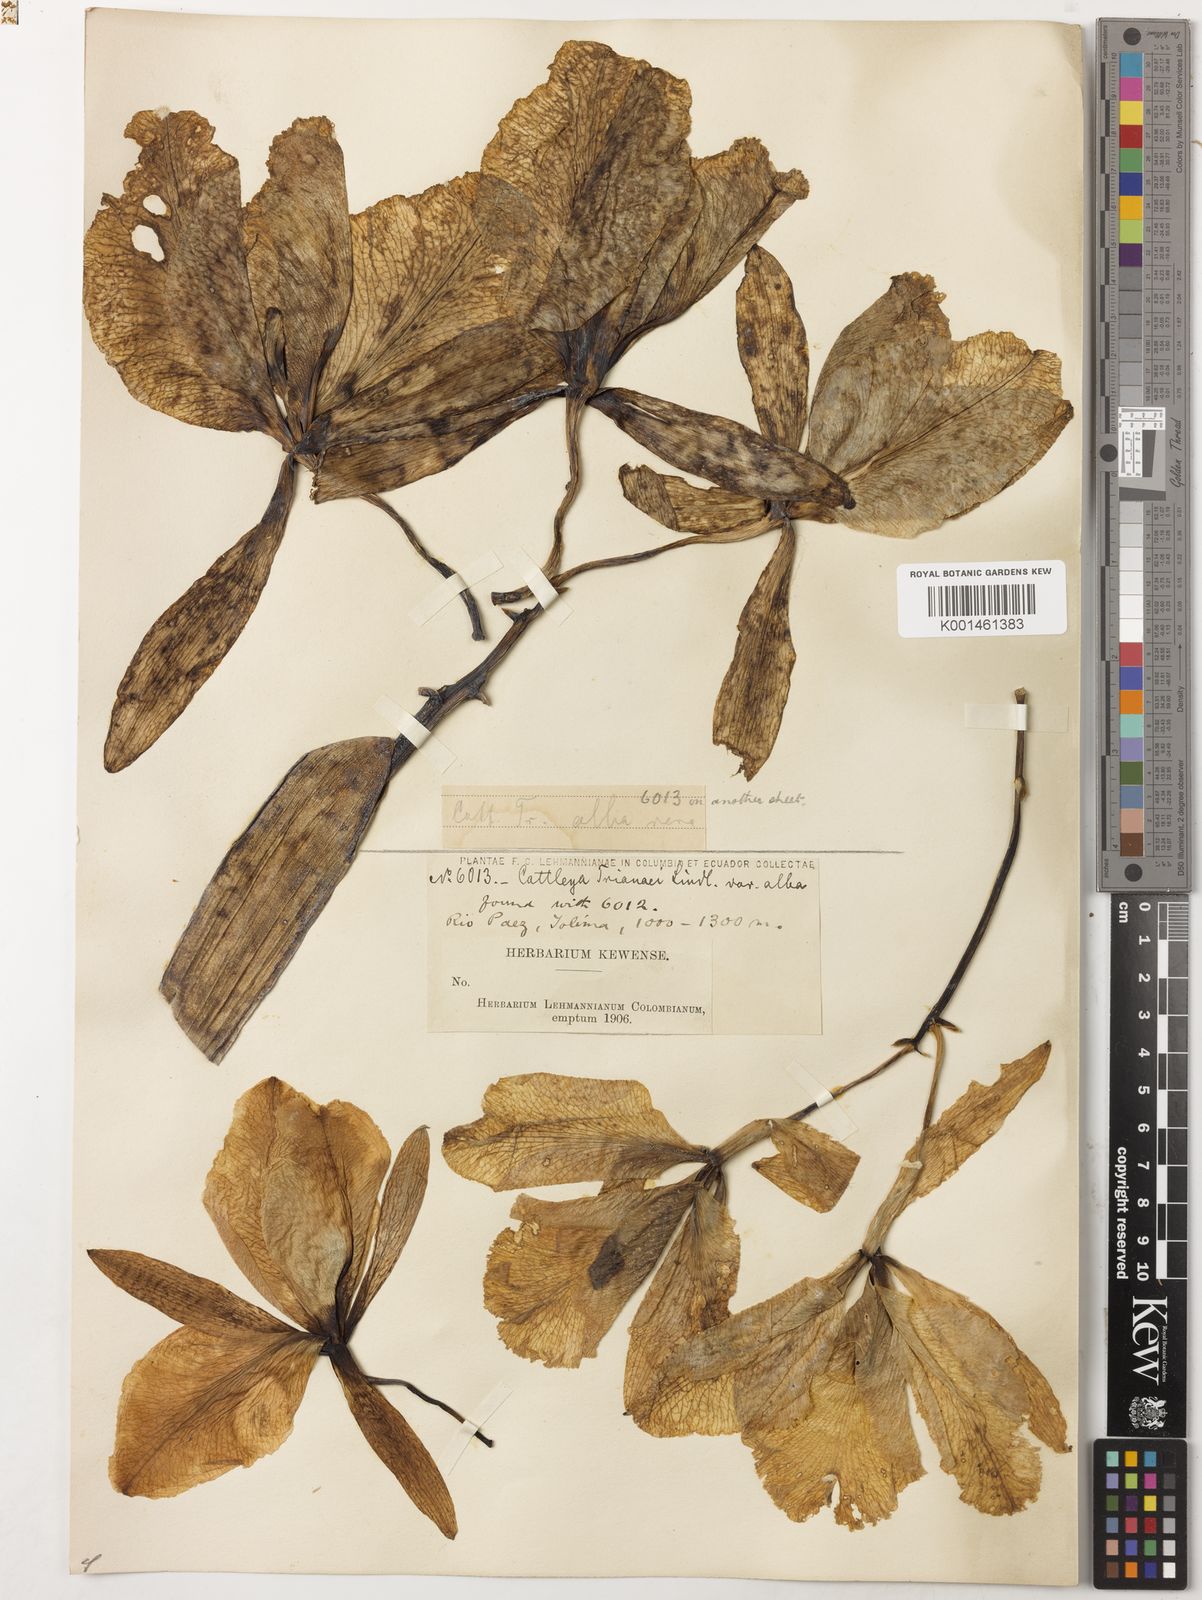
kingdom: Plantae
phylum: Tracheophyta
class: Liliopsida
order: Asparagales
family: Orchidaceae
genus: Cattleya
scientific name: Cattleya trianae
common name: Christmas orchid
